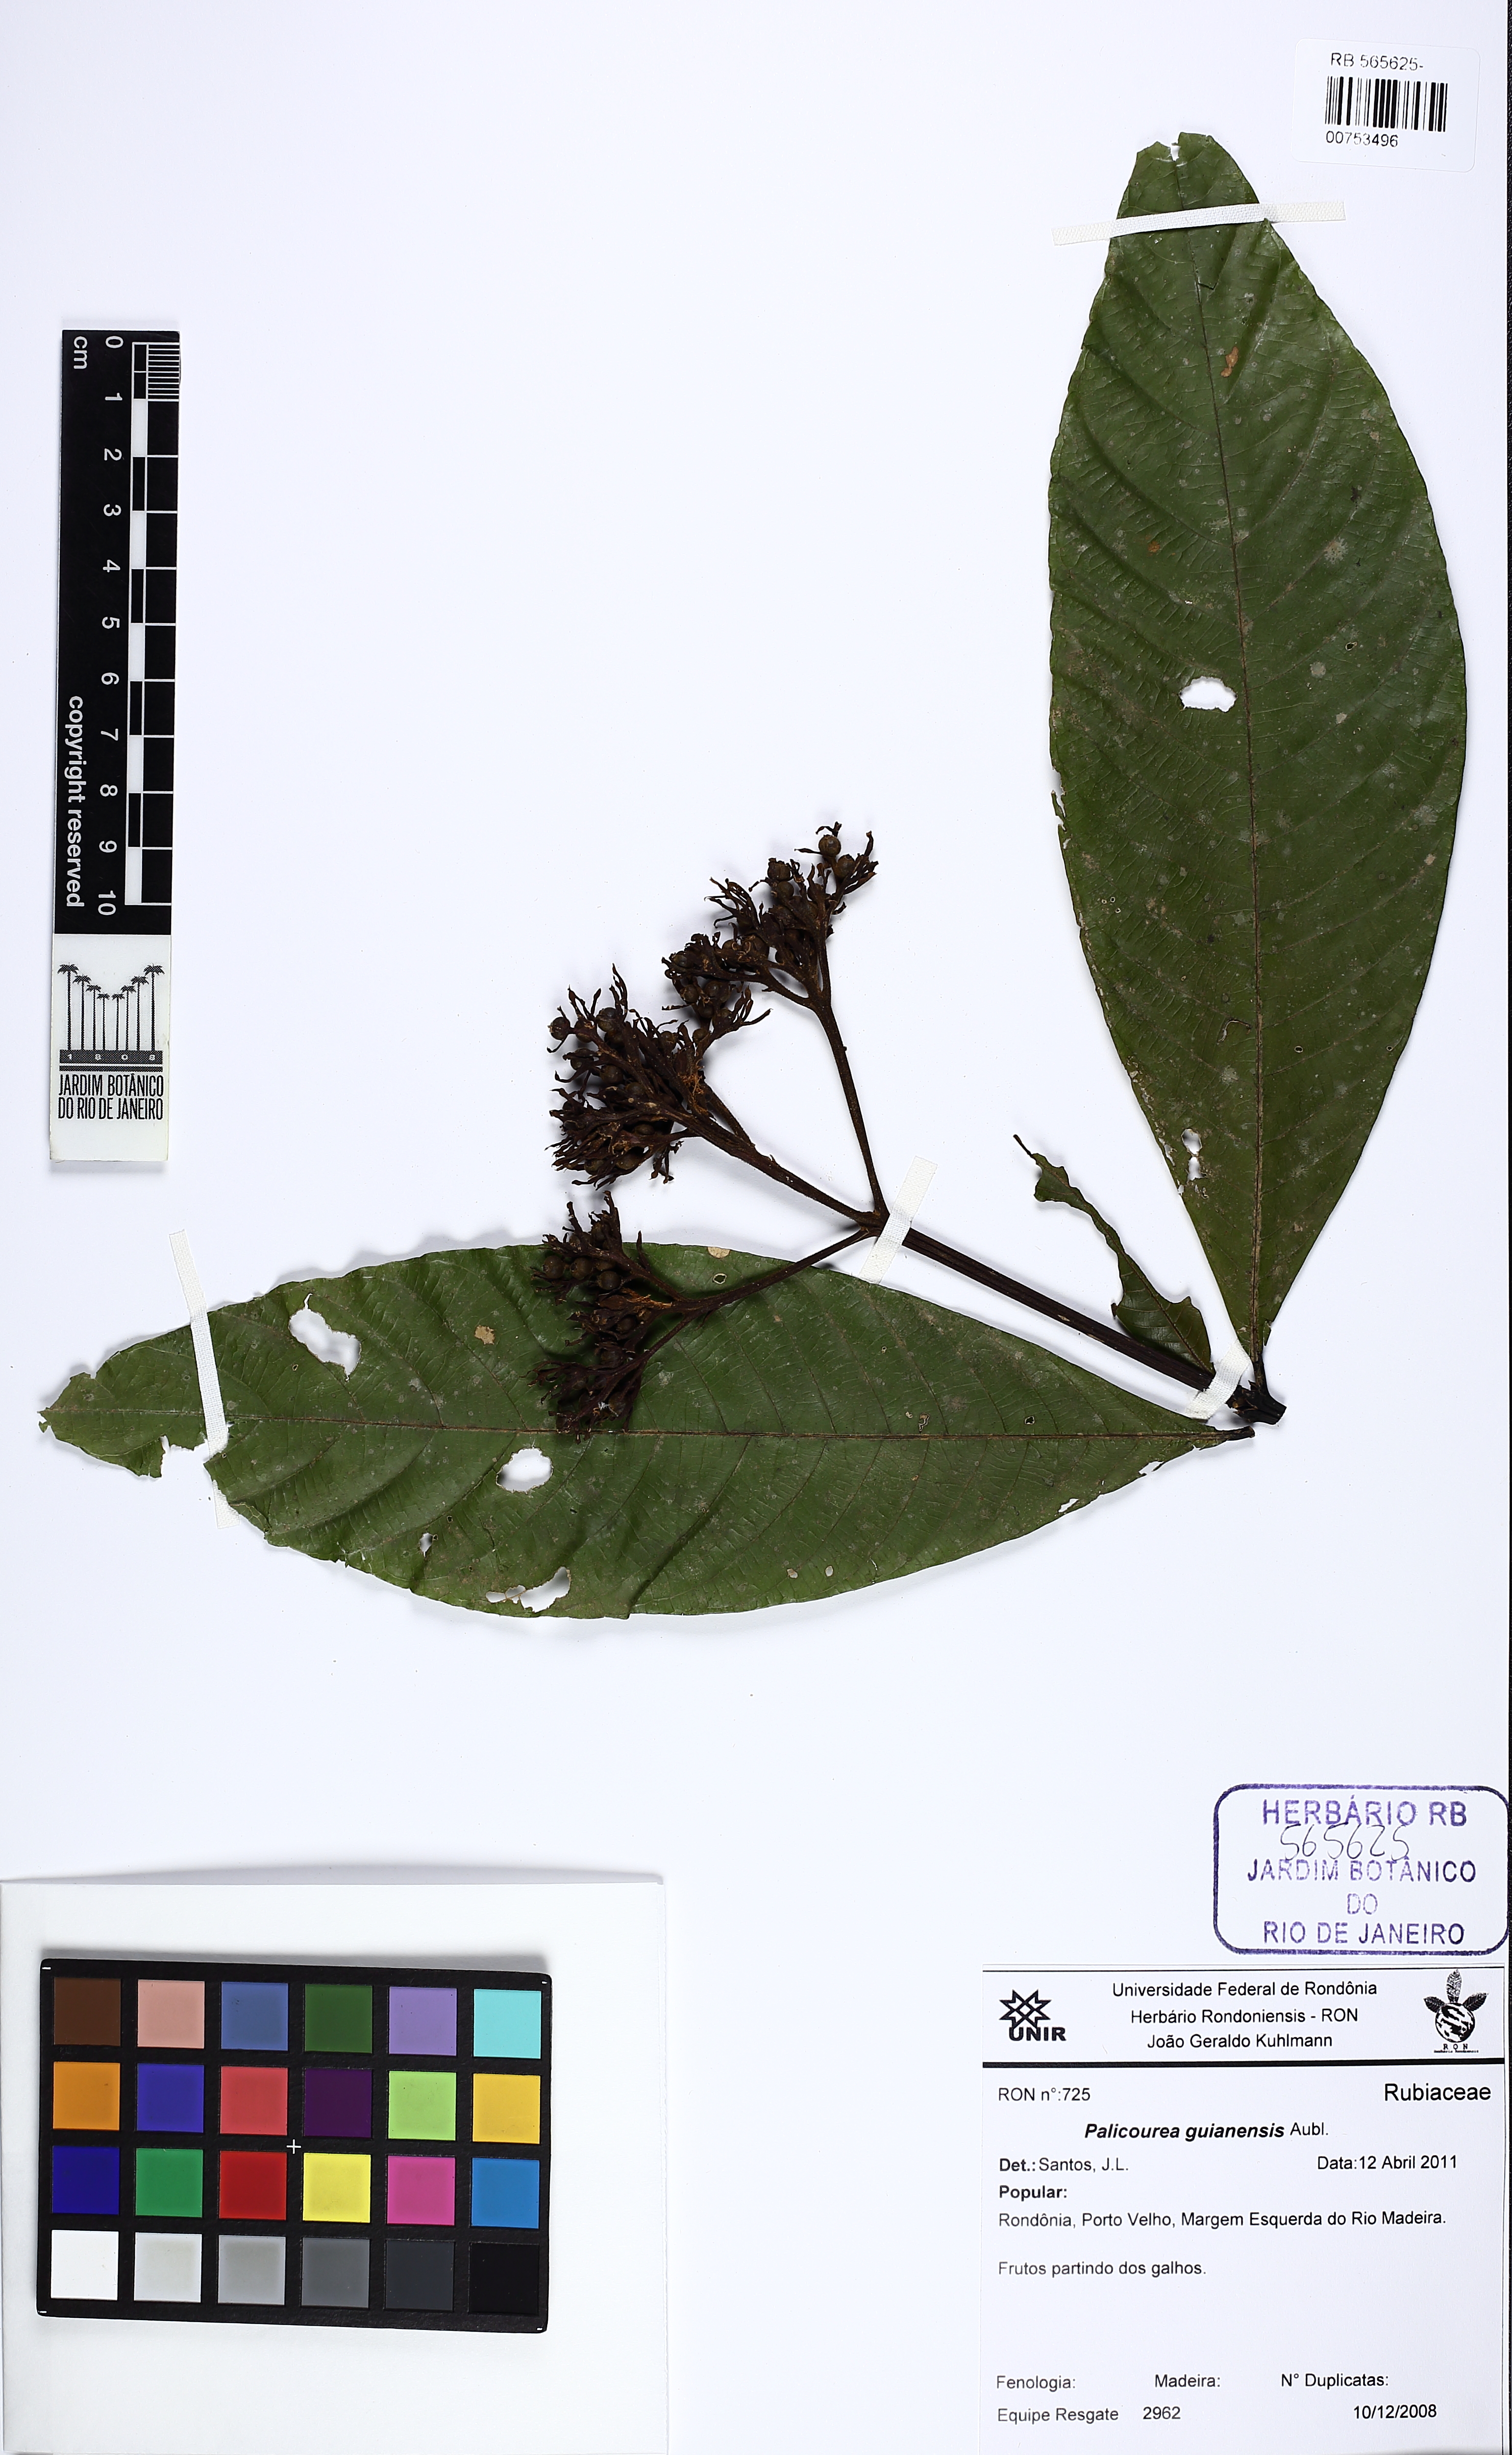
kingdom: Plantae
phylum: Tracheophyta
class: Magnoliopsida
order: Gentianales
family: Rubiaceae
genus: Palicourea
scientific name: Palicourea guianensis
